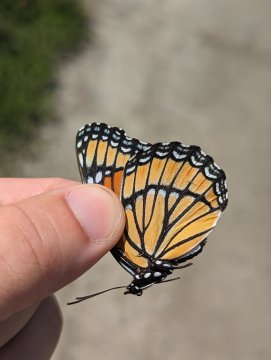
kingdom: Animalia
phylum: Arthropoda
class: Insecta
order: Lepidoptera
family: Nymphalidae
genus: Limenitis
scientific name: Limenitis archippus
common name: Viceroy
